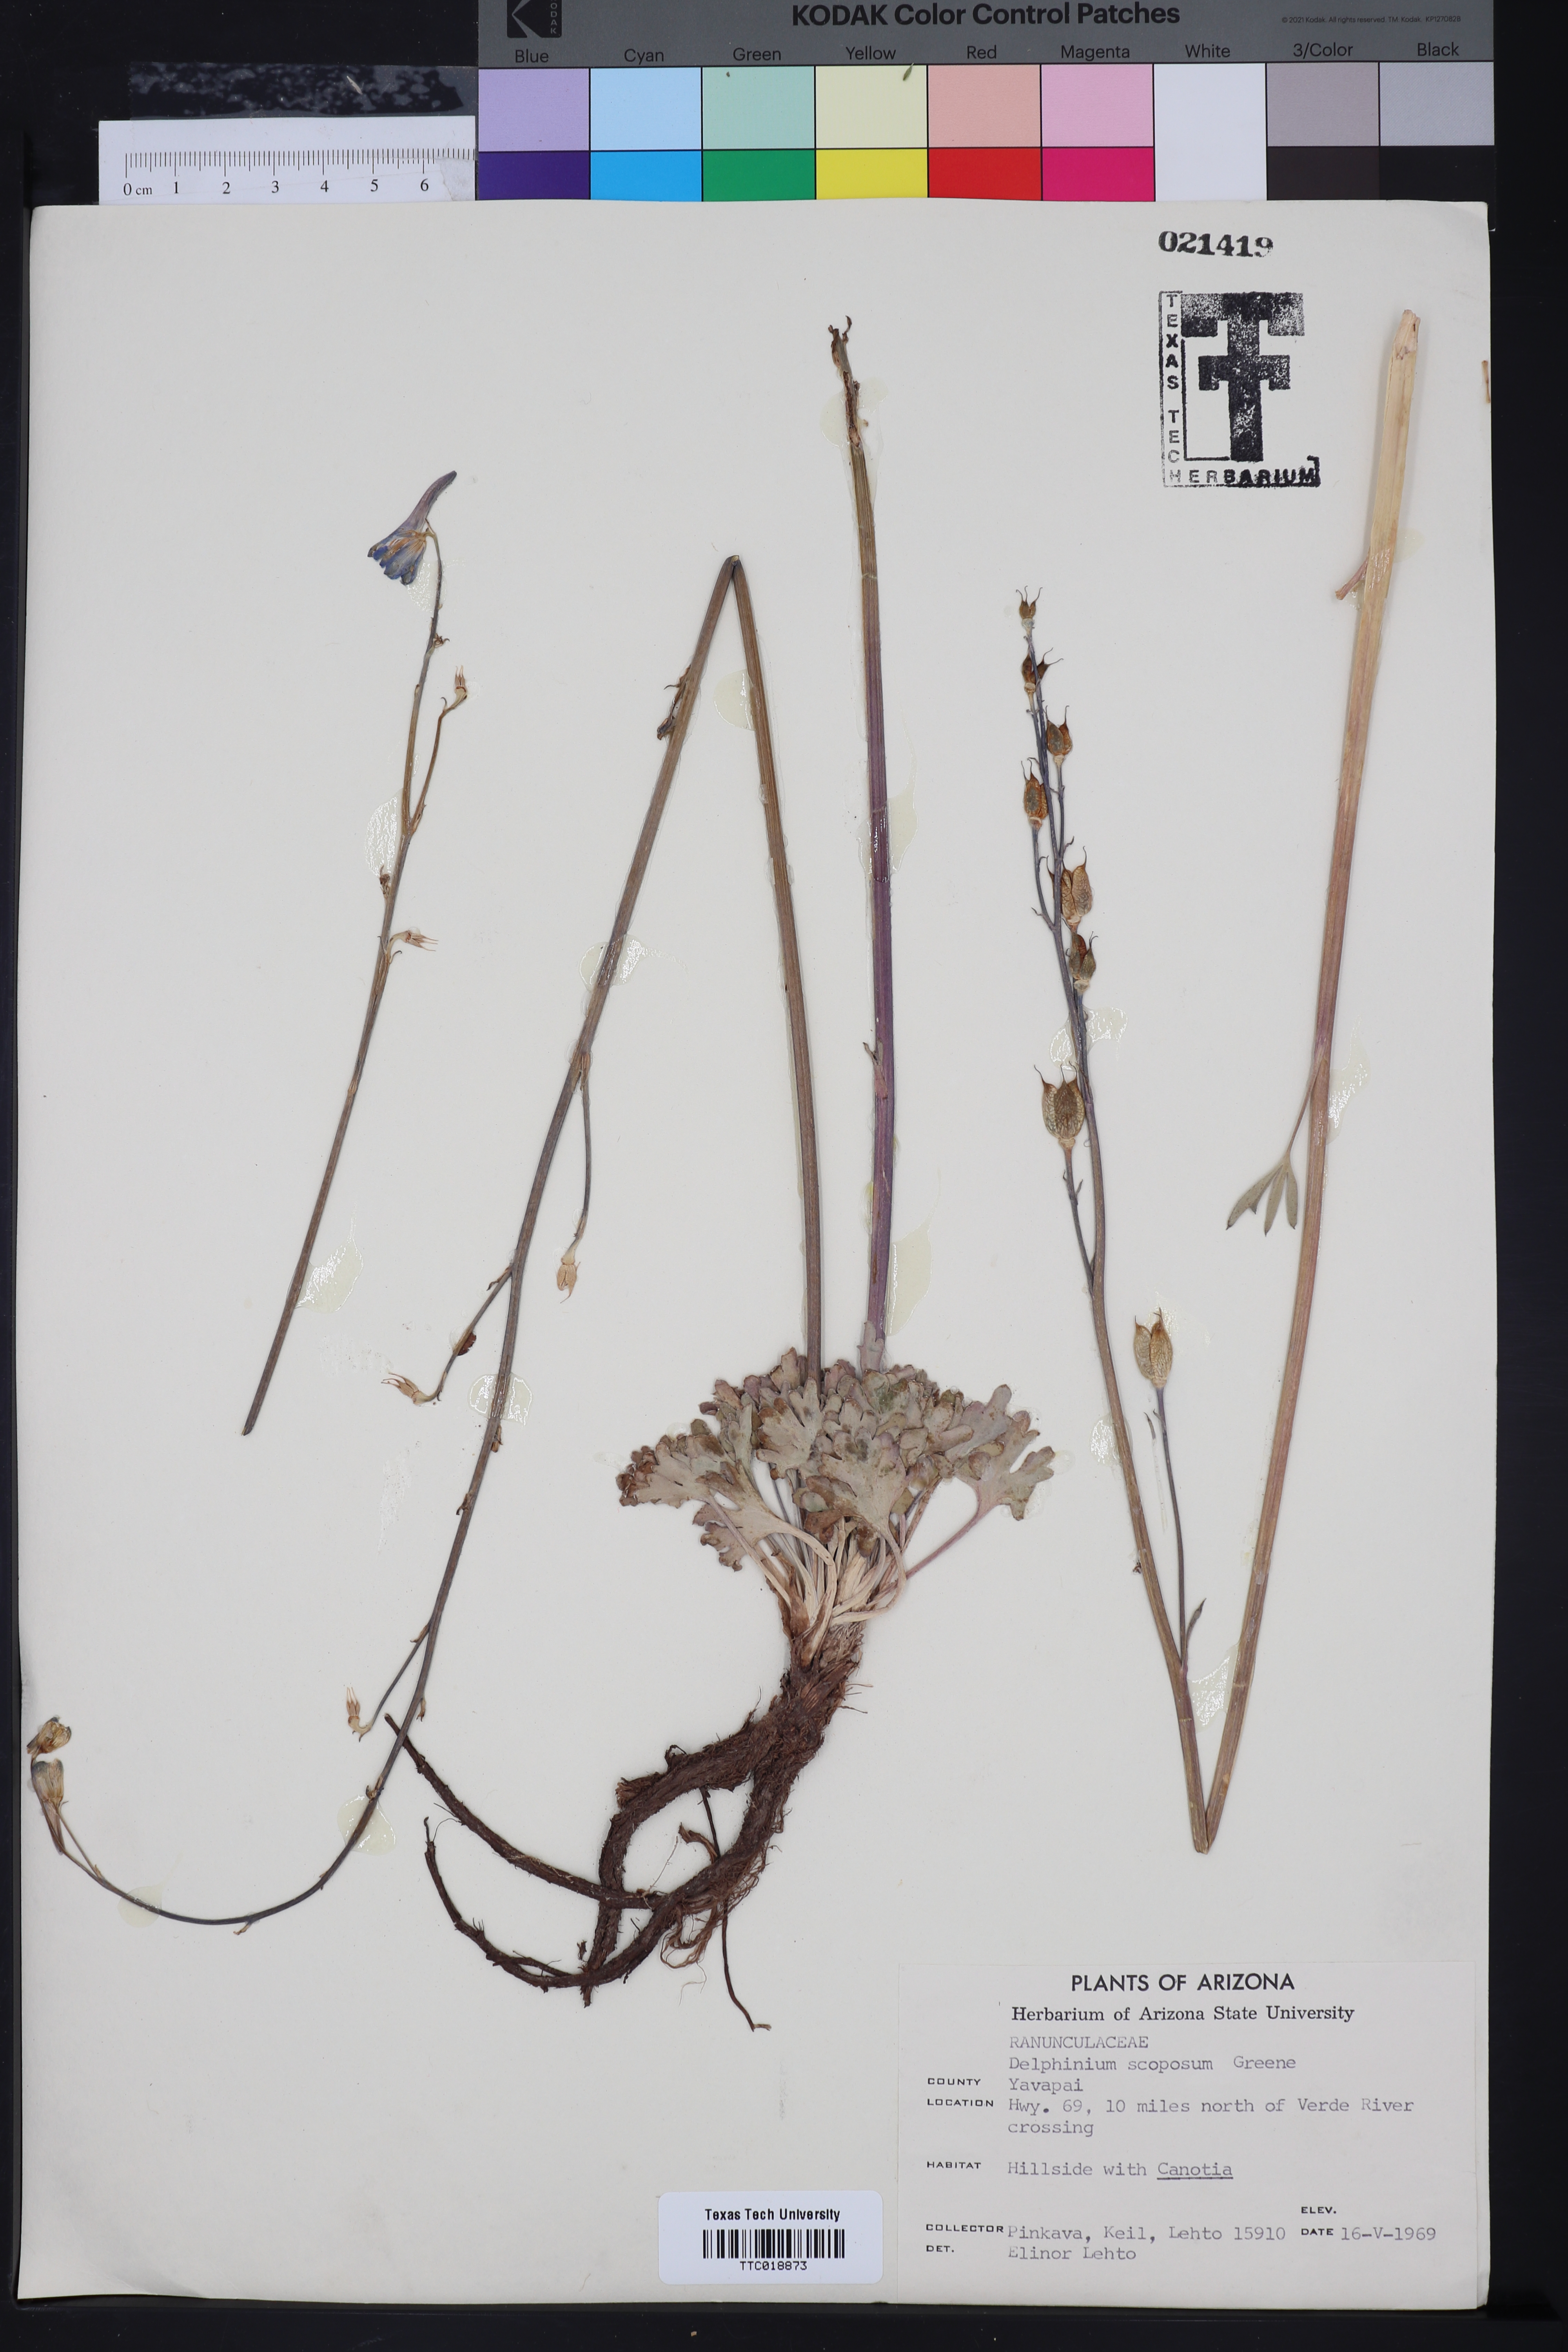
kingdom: Plantae
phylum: Tracheophyta
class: Magnoliopsida
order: Ranunculales
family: Ranunculaceae
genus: Delphinium
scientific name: Delphinium scaposum
